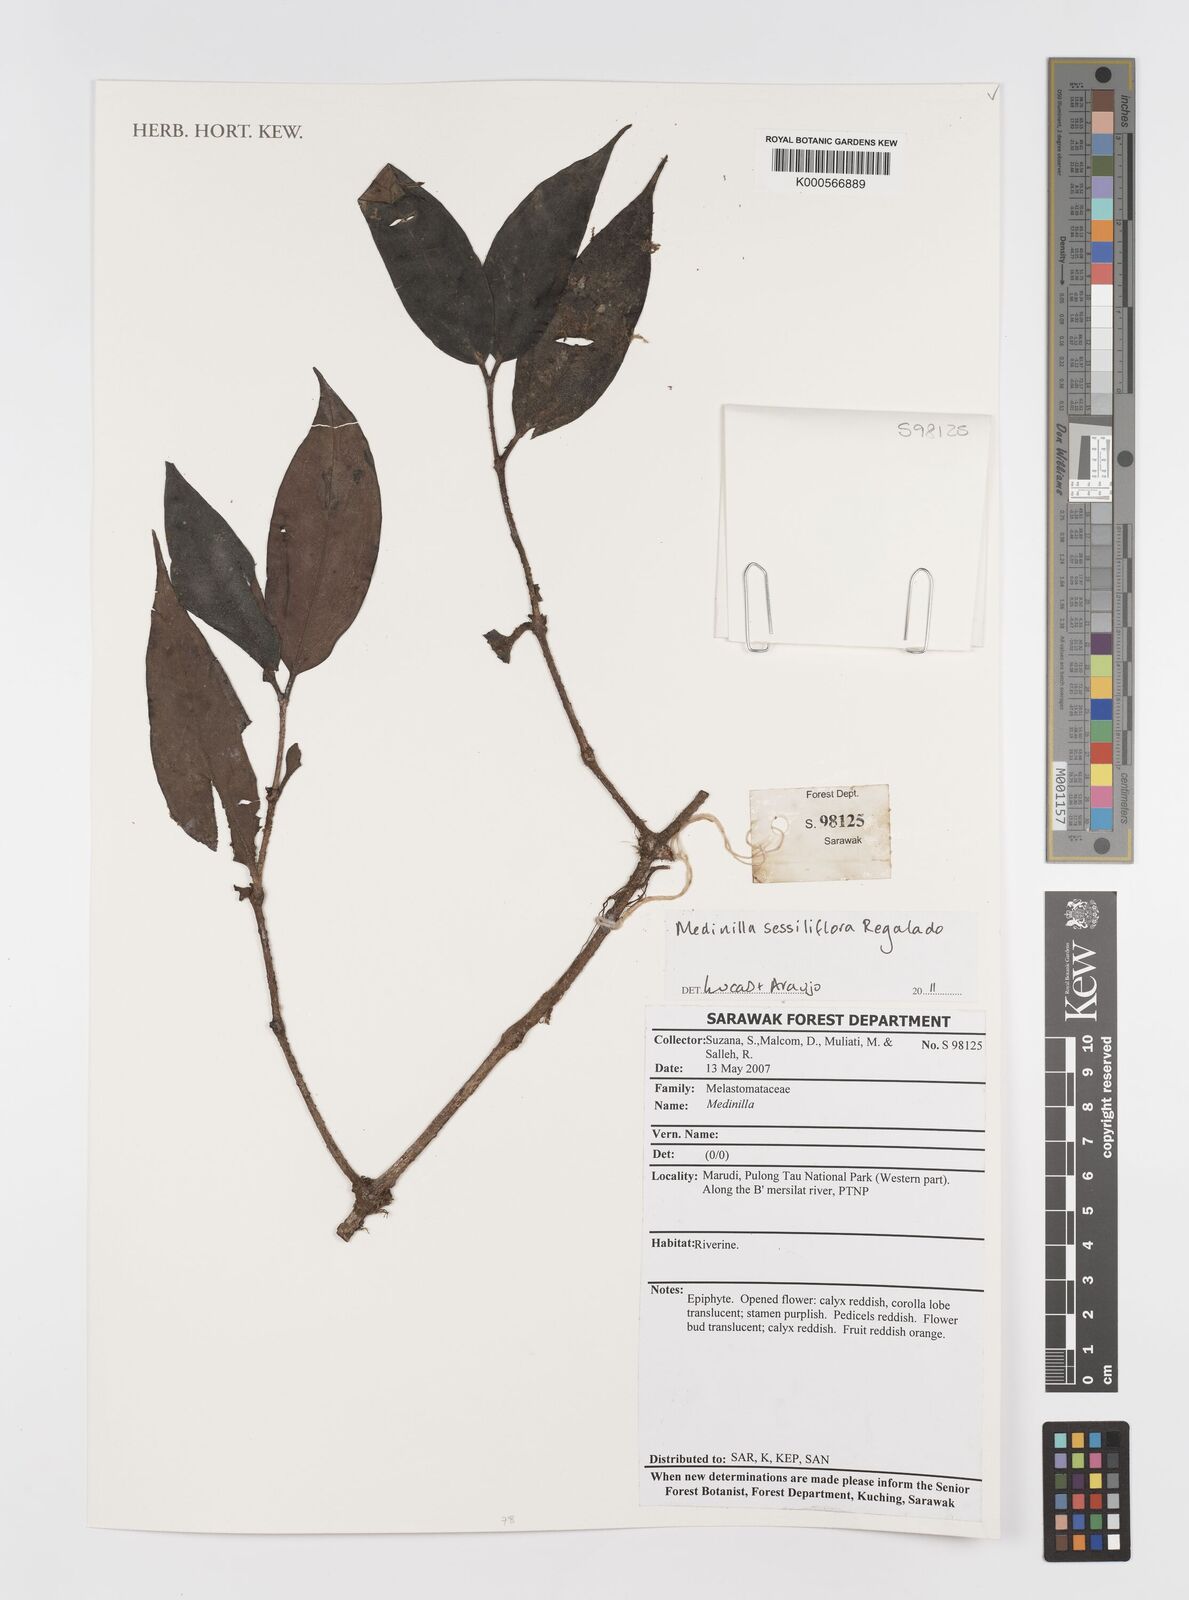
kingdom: Plantae
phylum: Tracheophyta
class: Magnoliopsida
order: Myrtales
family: Melastomataceae
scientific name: Melastomataceae
